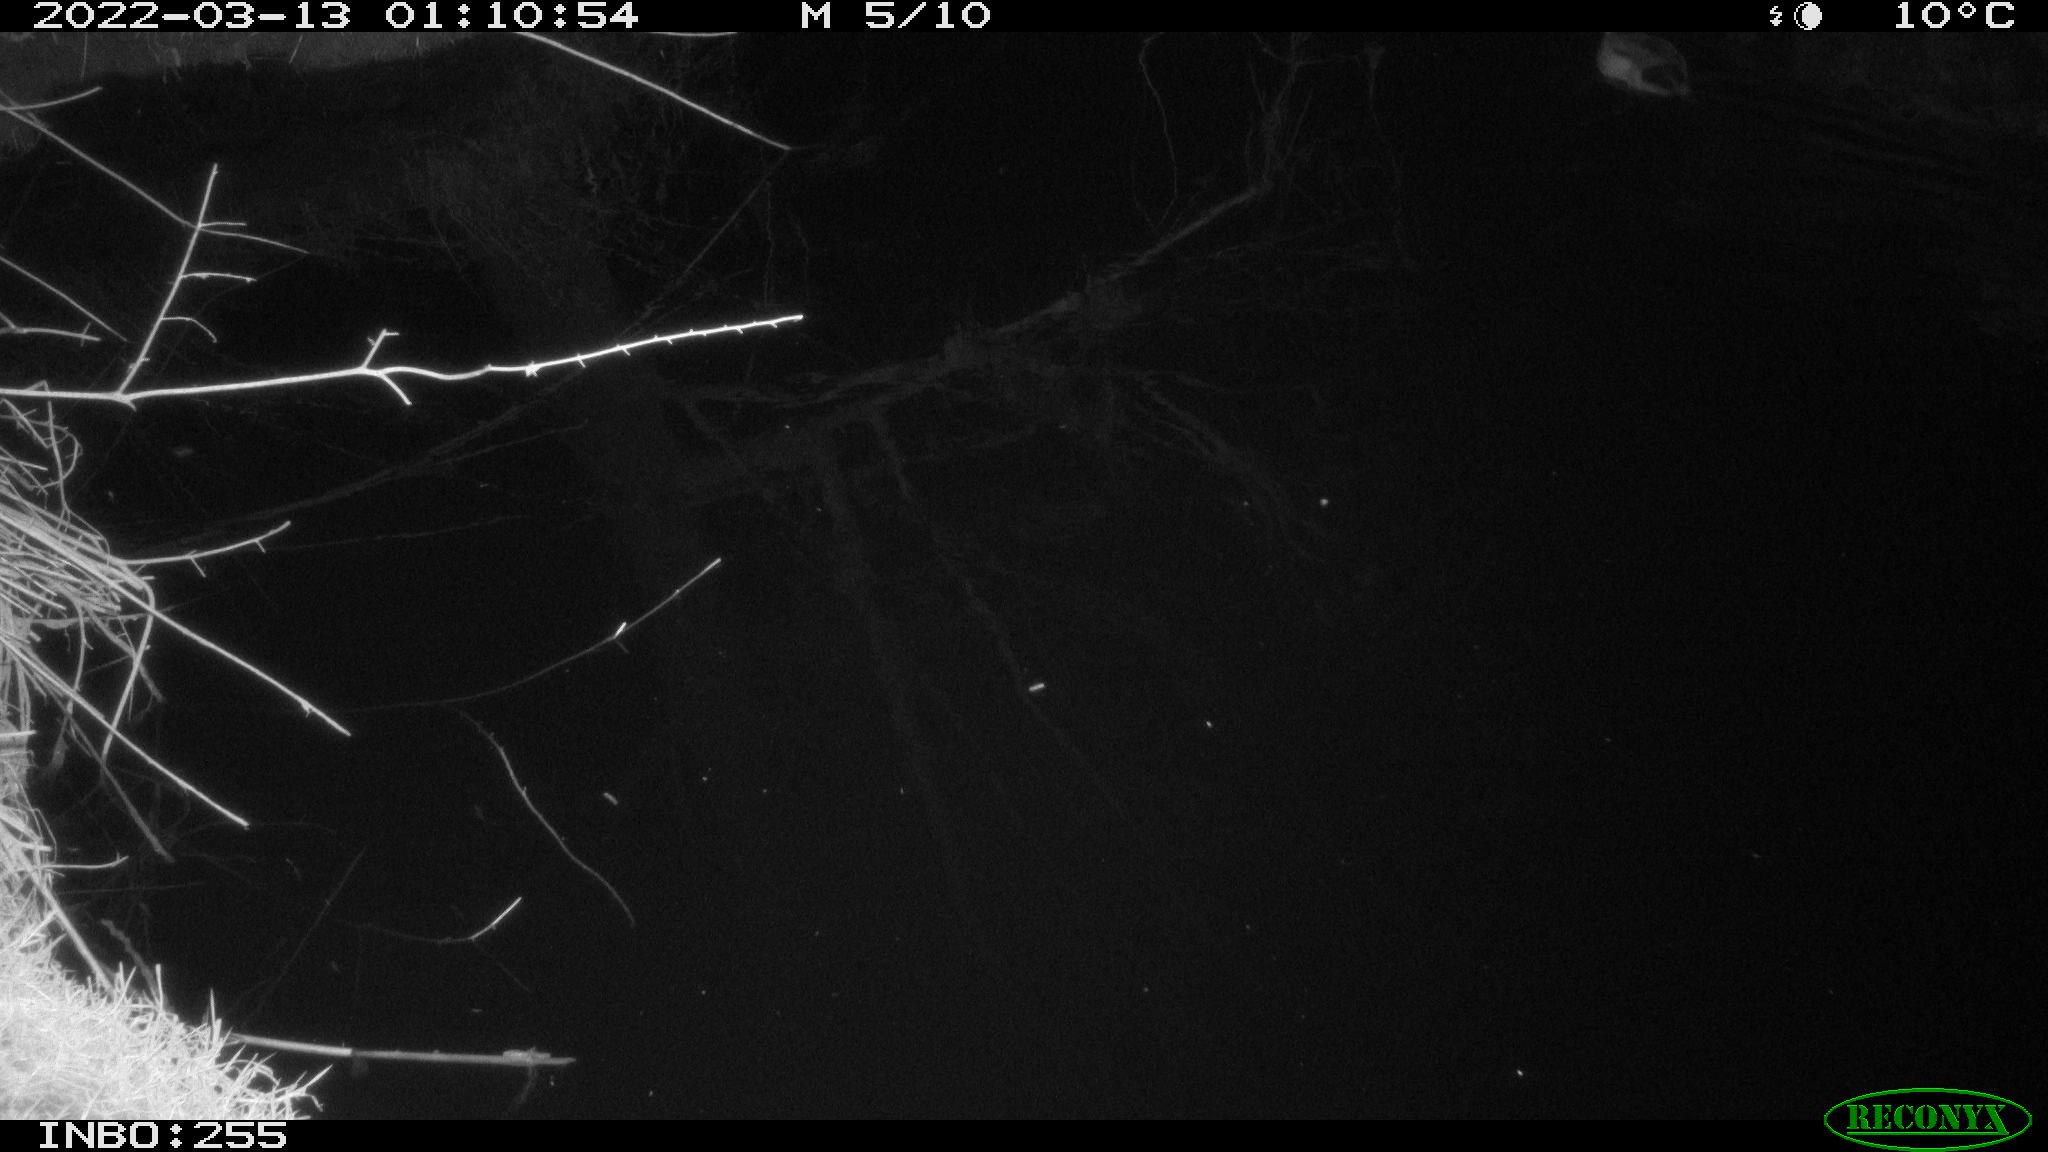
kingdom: Animalia
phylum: Chordata
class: Aves
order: Anseriformes
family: Anatidae
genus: Anas
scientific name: Anas platyrhynchos
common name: Mallard
